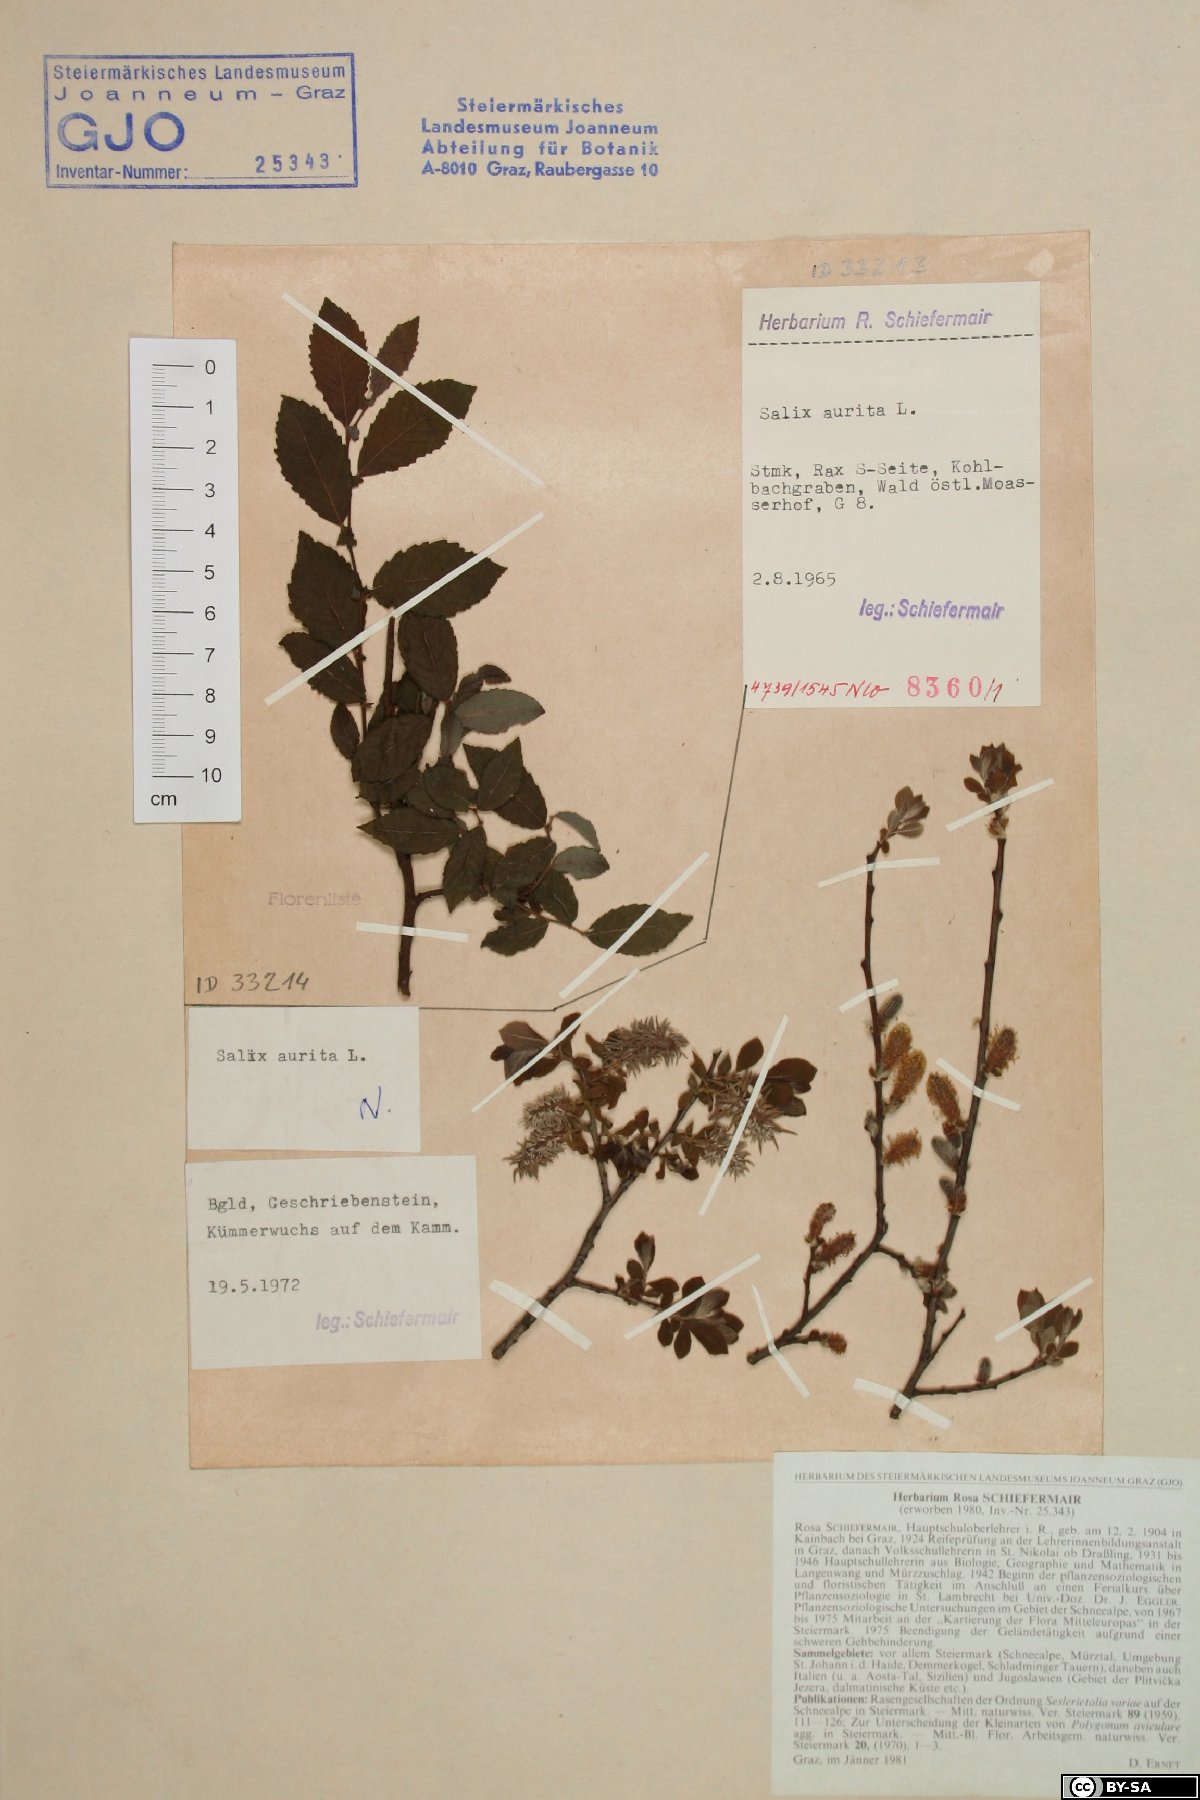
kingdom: Plantae
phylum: Tracheophyta
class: Magnoliopsida
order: Malpighiales
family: Salicaceae
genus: Salix
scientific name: Salix aurita
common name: Eared willow
